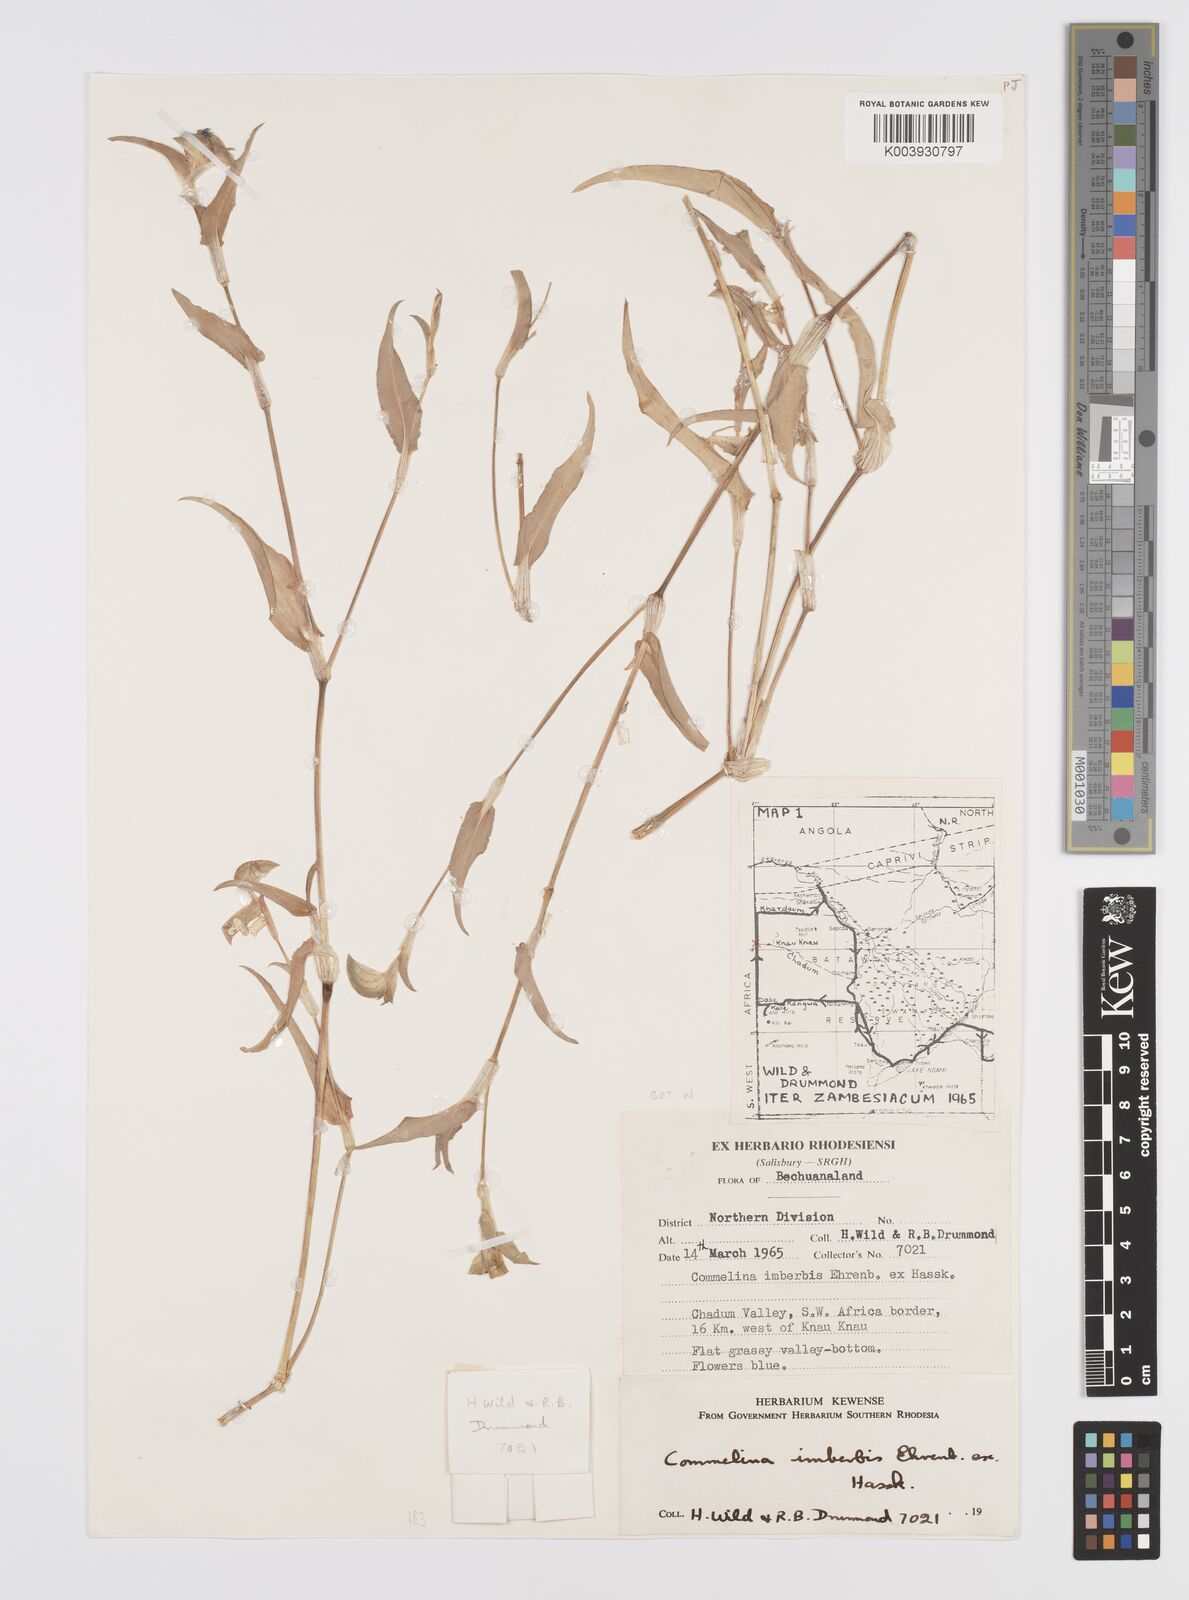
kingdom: Plantae
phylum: Tracheophyta
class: Liliopsida
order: Commelinales
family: Commelinaceae
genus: Commelina
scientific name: Commelina kotschyi
